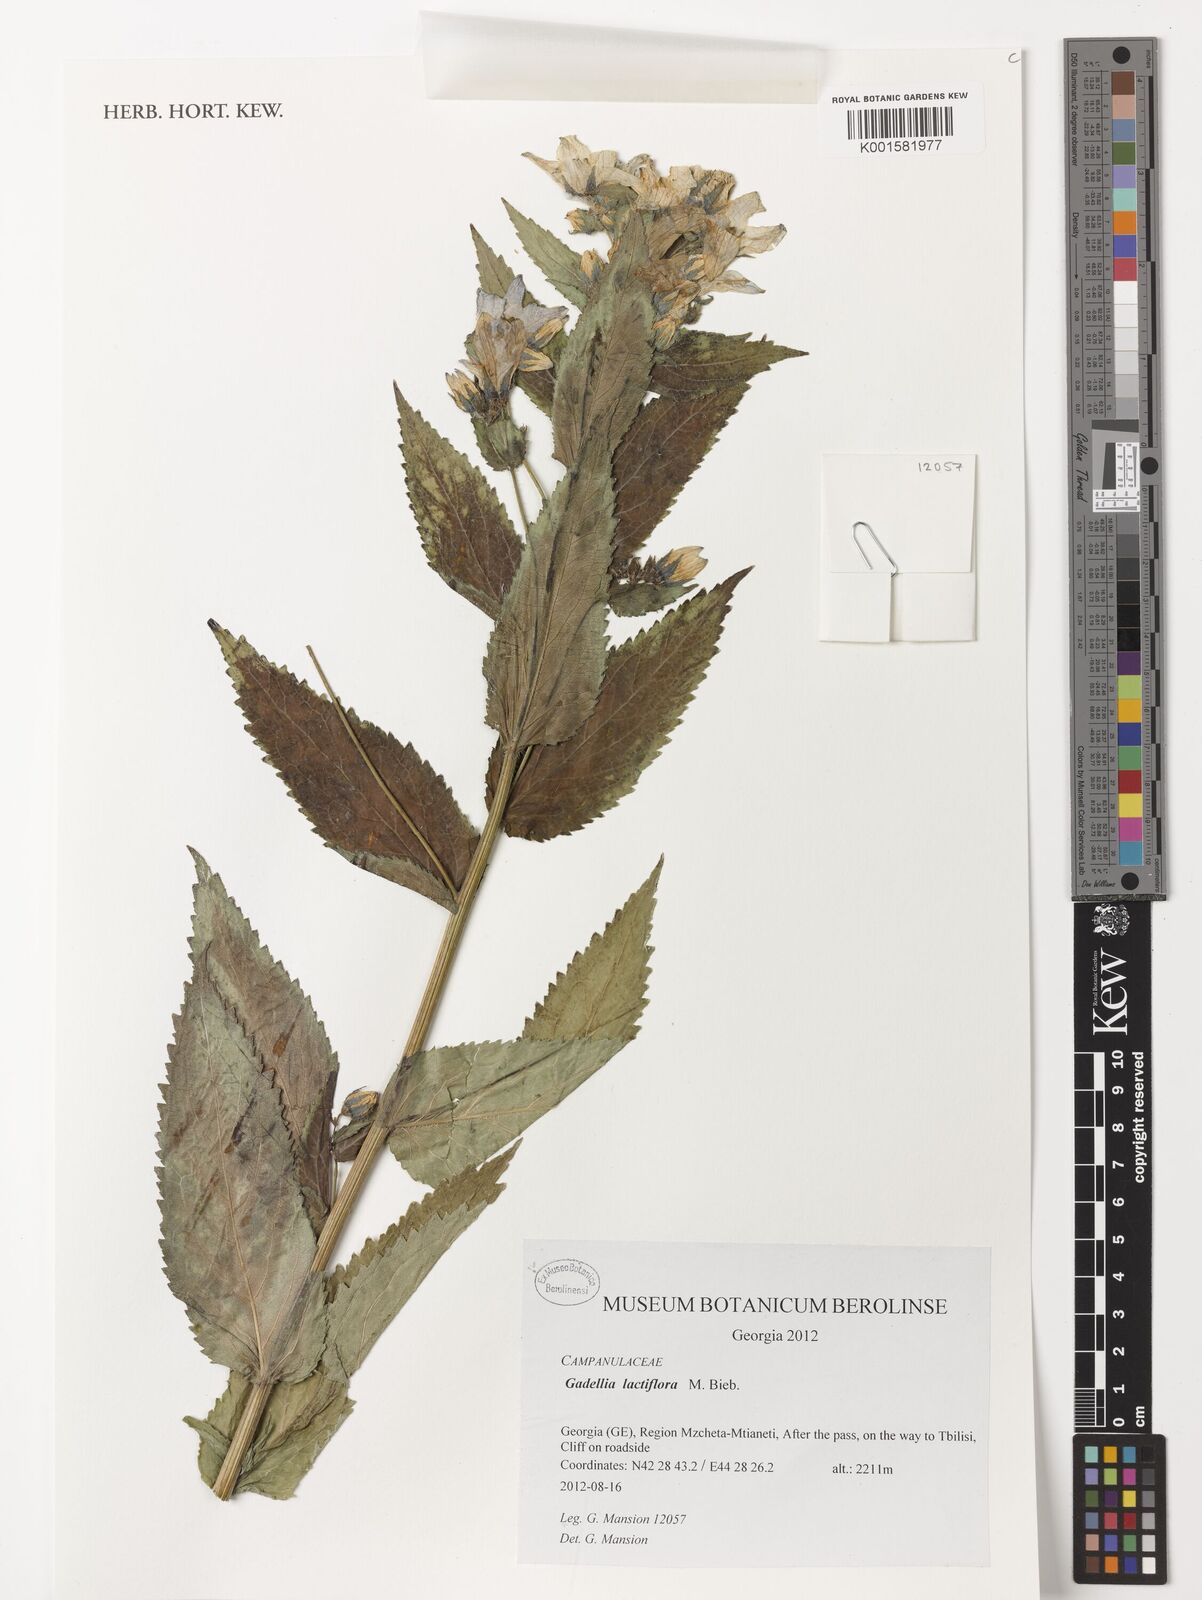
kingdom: Plantae
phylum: Tracheophyta
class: Magnoliopsida
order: Asterales
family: Campanulaceae
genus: Campanula
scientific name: Campanula lactiflora
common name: Milky bellflower
